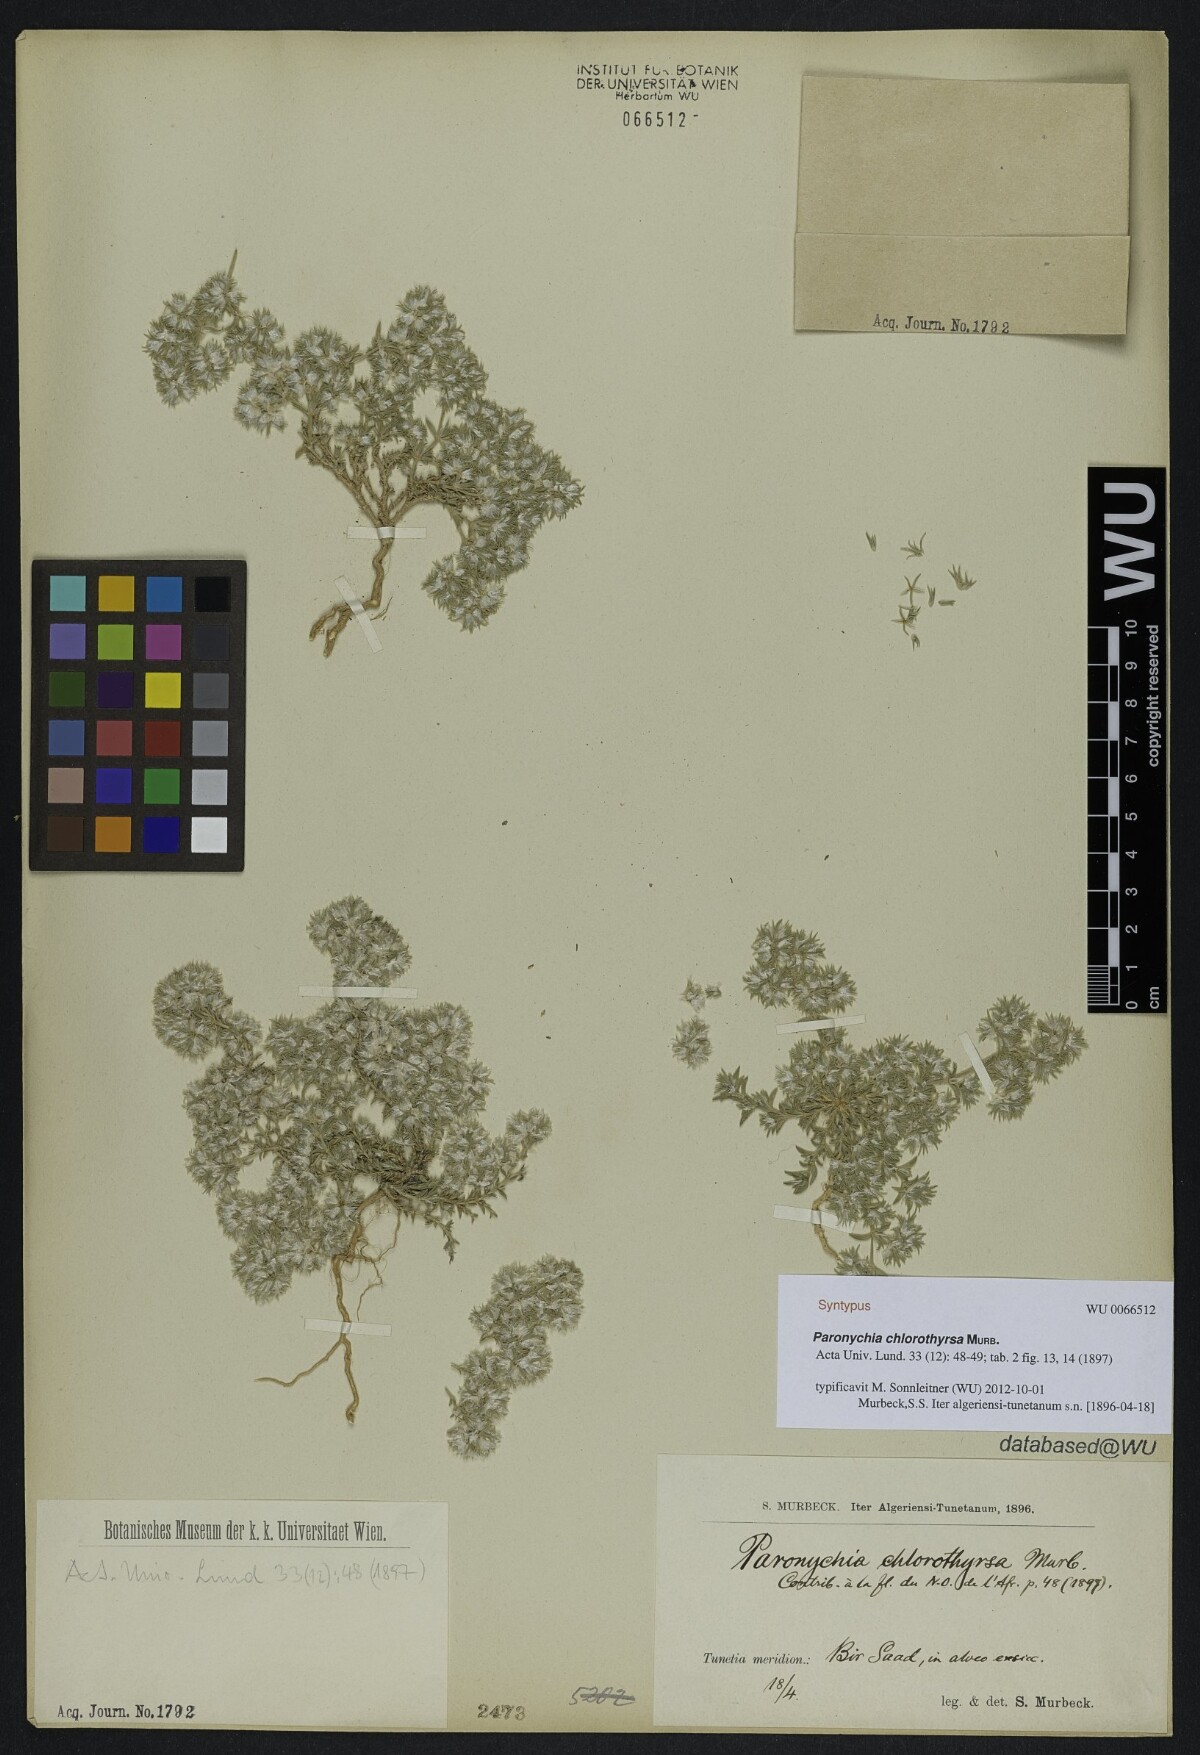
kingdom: Plantae
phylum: Tracheophyta
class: Magnoliopsida
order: Caryophyllales
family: Caryophyllaceae
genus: Paronychia
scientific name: Paronychia chlorothyrsa
